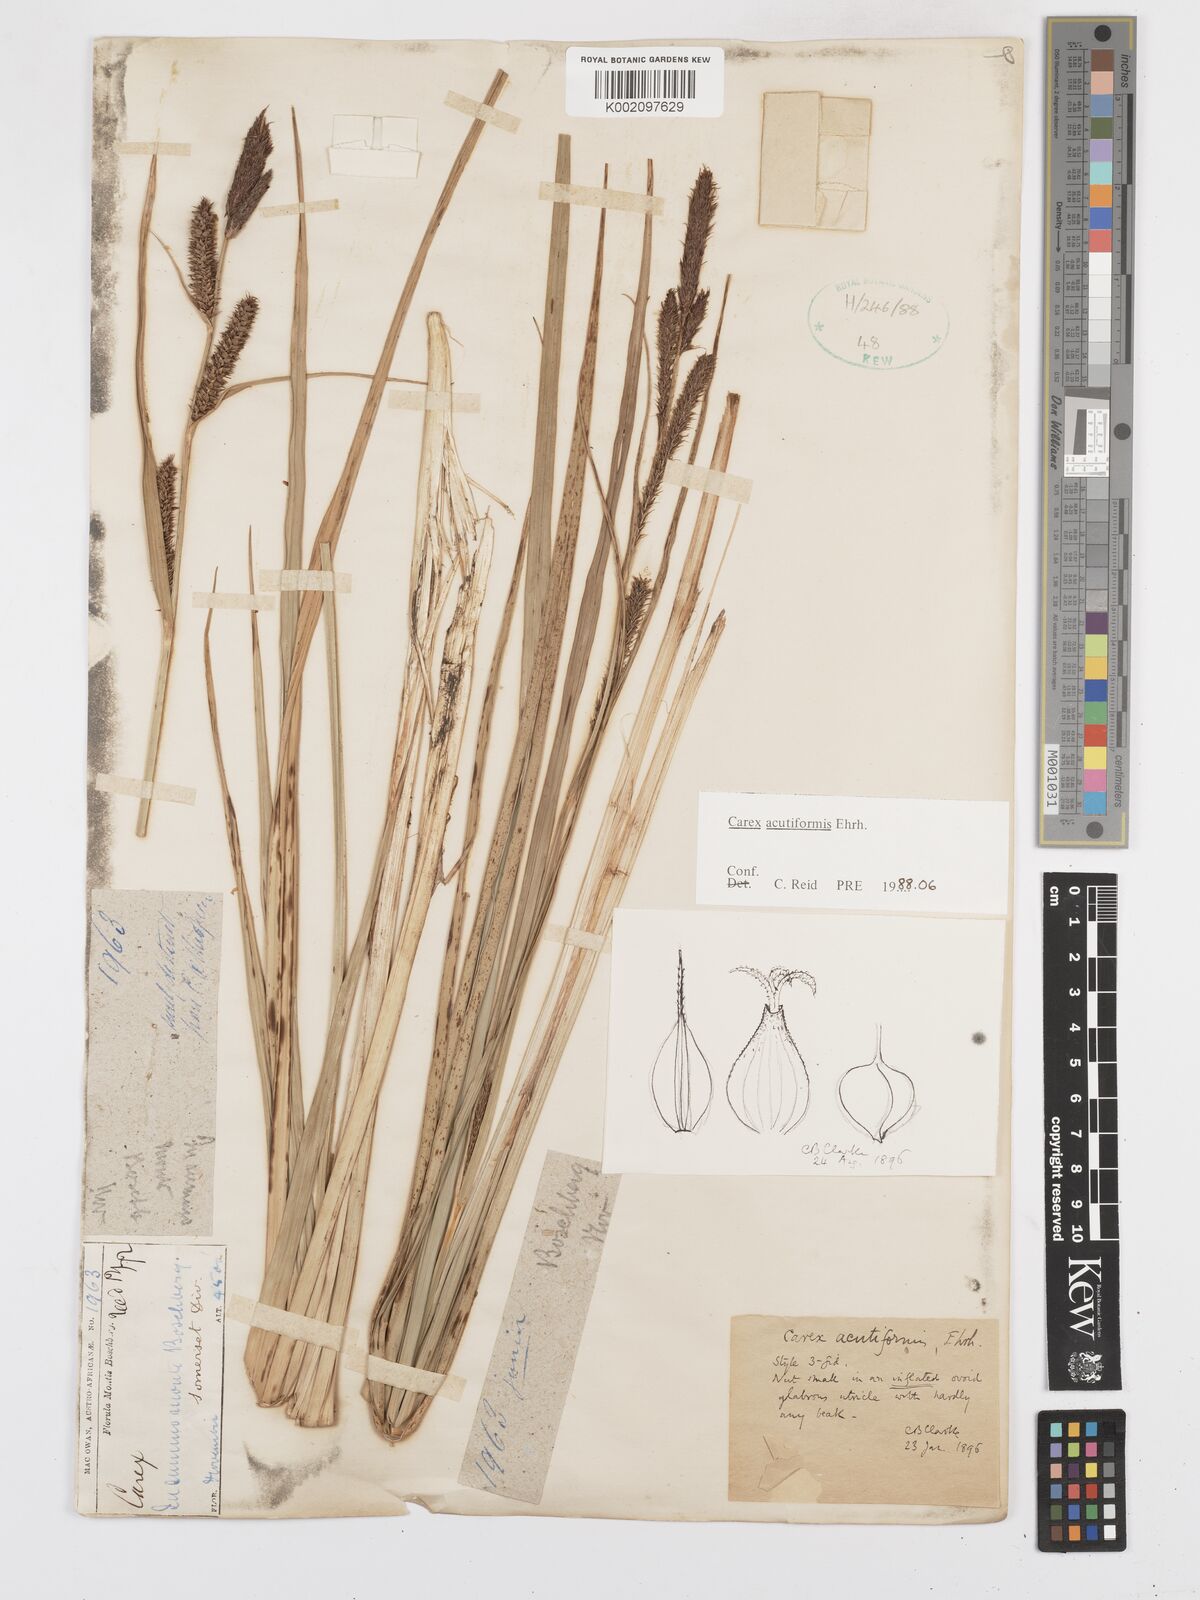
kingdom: Plantae
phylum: Tracheophyta
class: Liliopsida
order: Poales
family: Cyperaceae
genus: Carex
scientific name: Carex acutiformis
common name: Lesser pond-sedge
